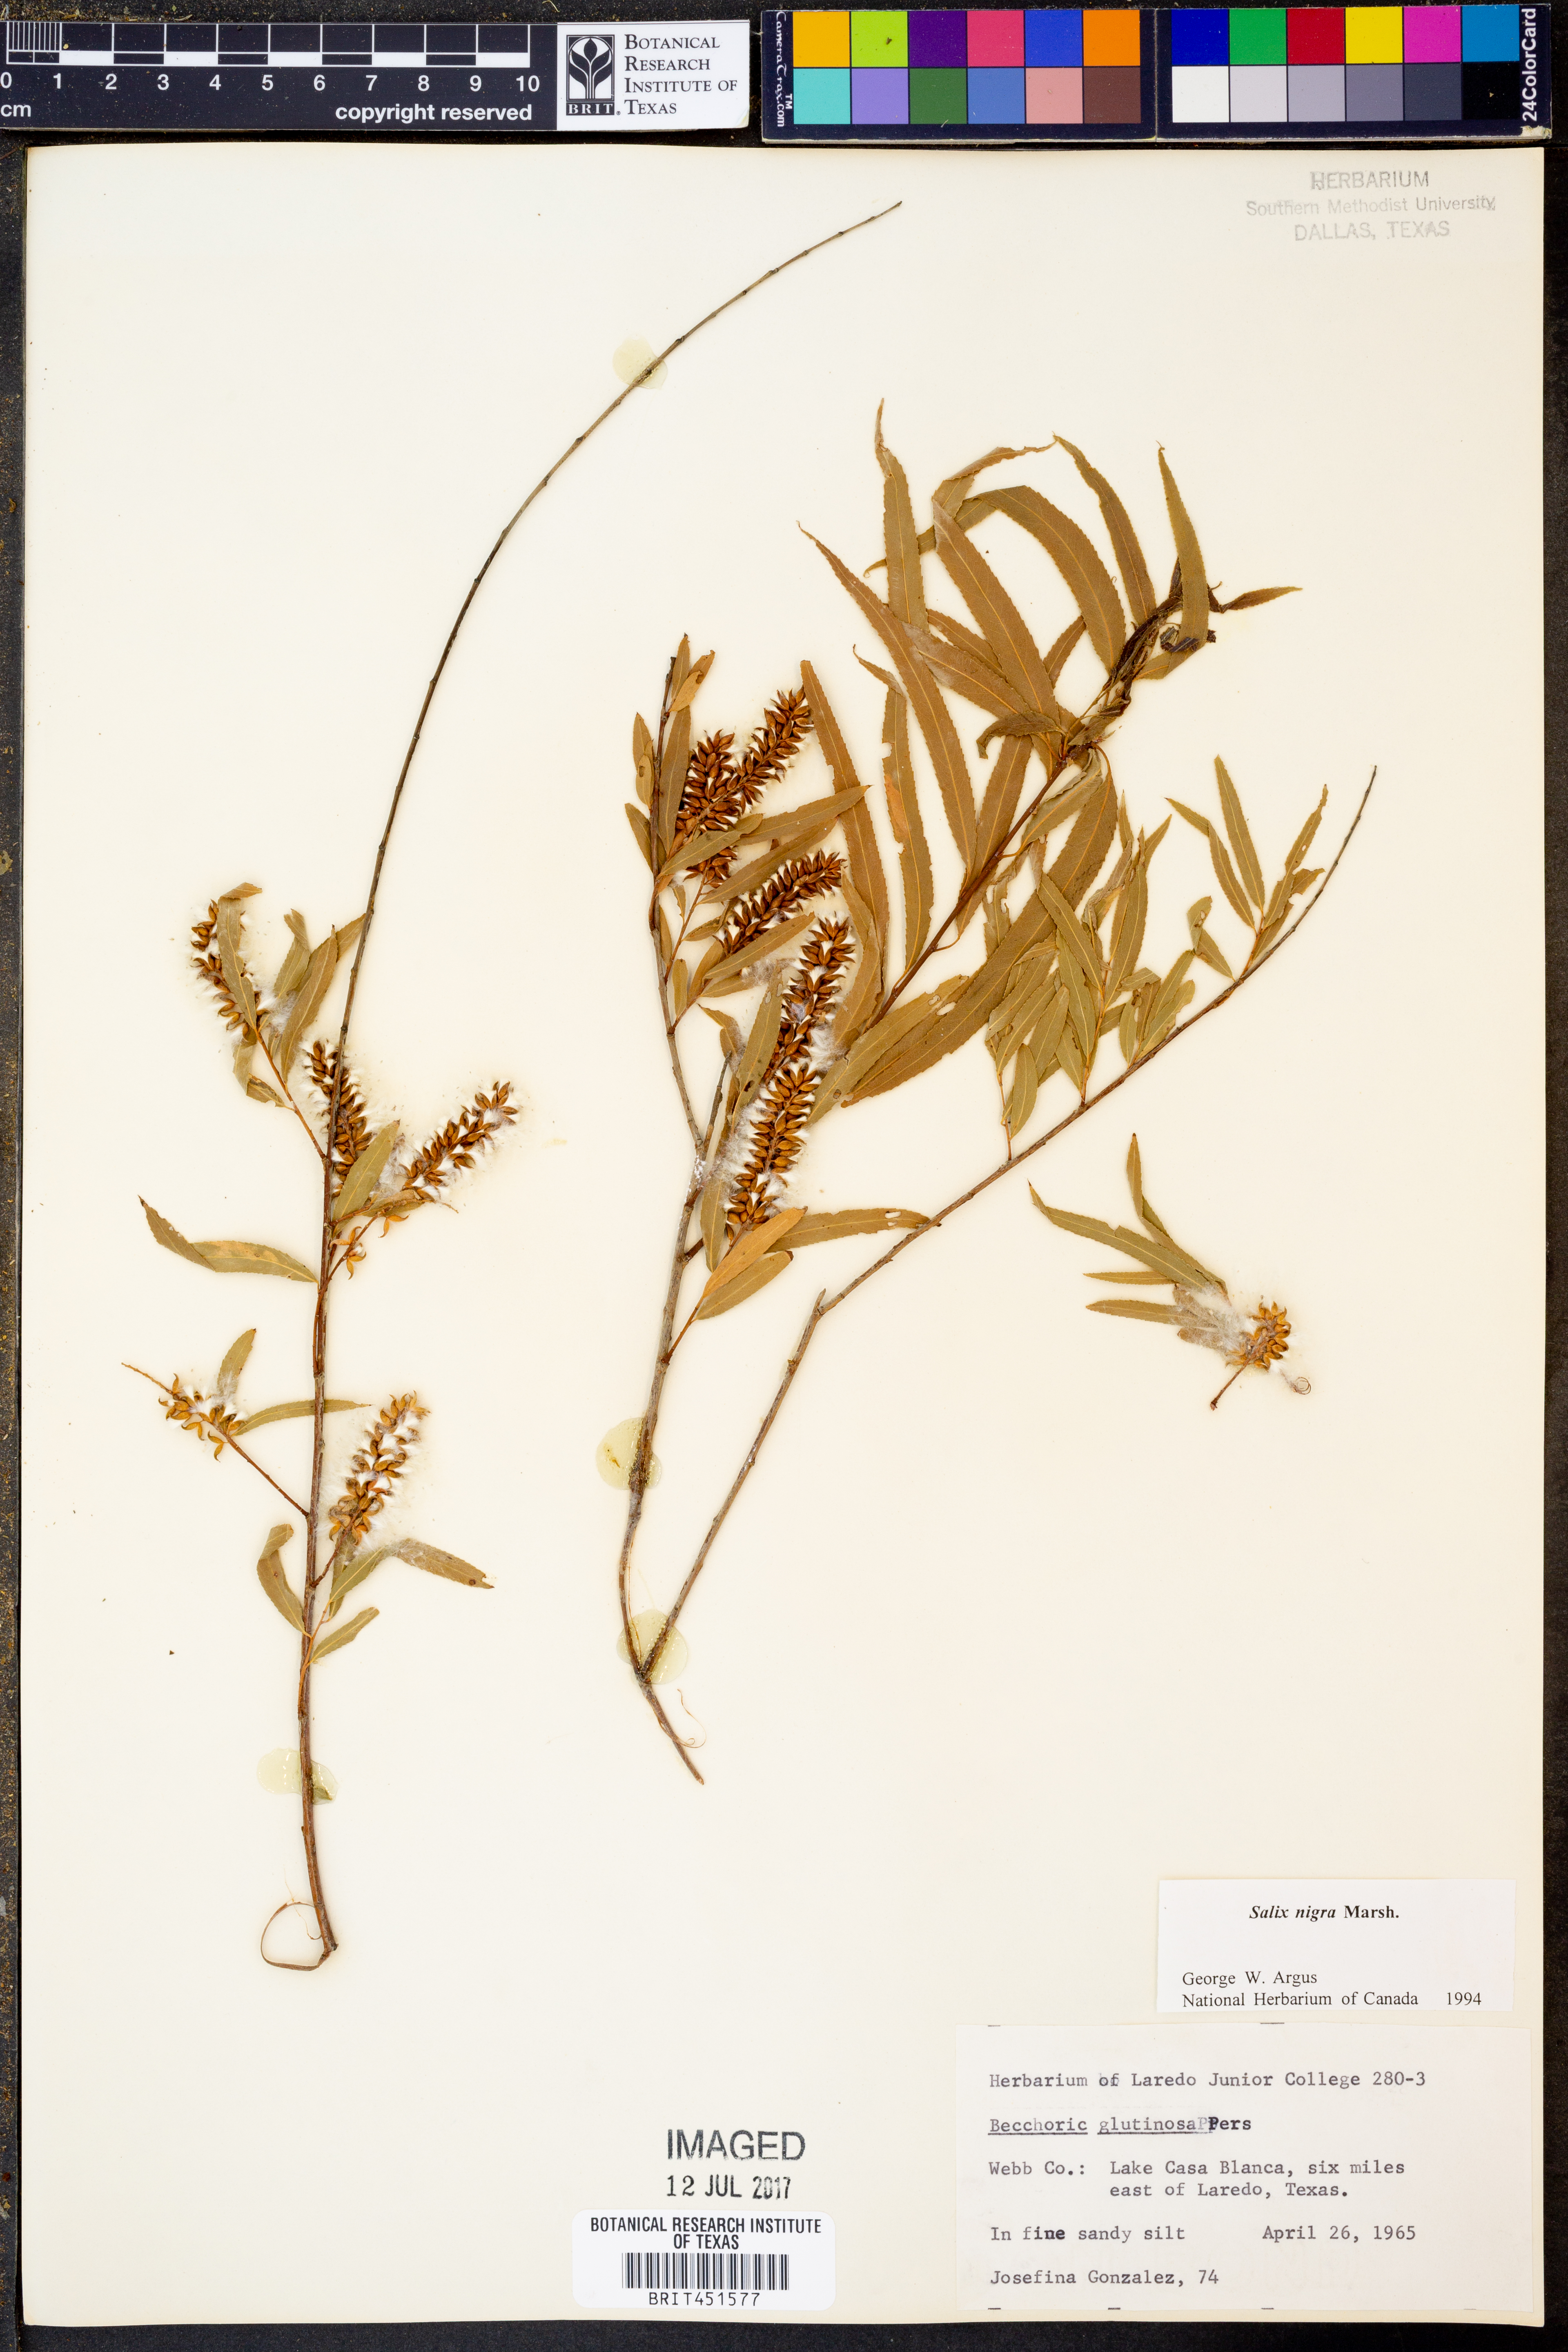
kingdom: Plantae
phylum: Tracheophyta
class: Magnoliopsida
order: Malpighiales
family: Salicaceae
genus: Salix
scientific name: Salix nigra
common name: Black willow
